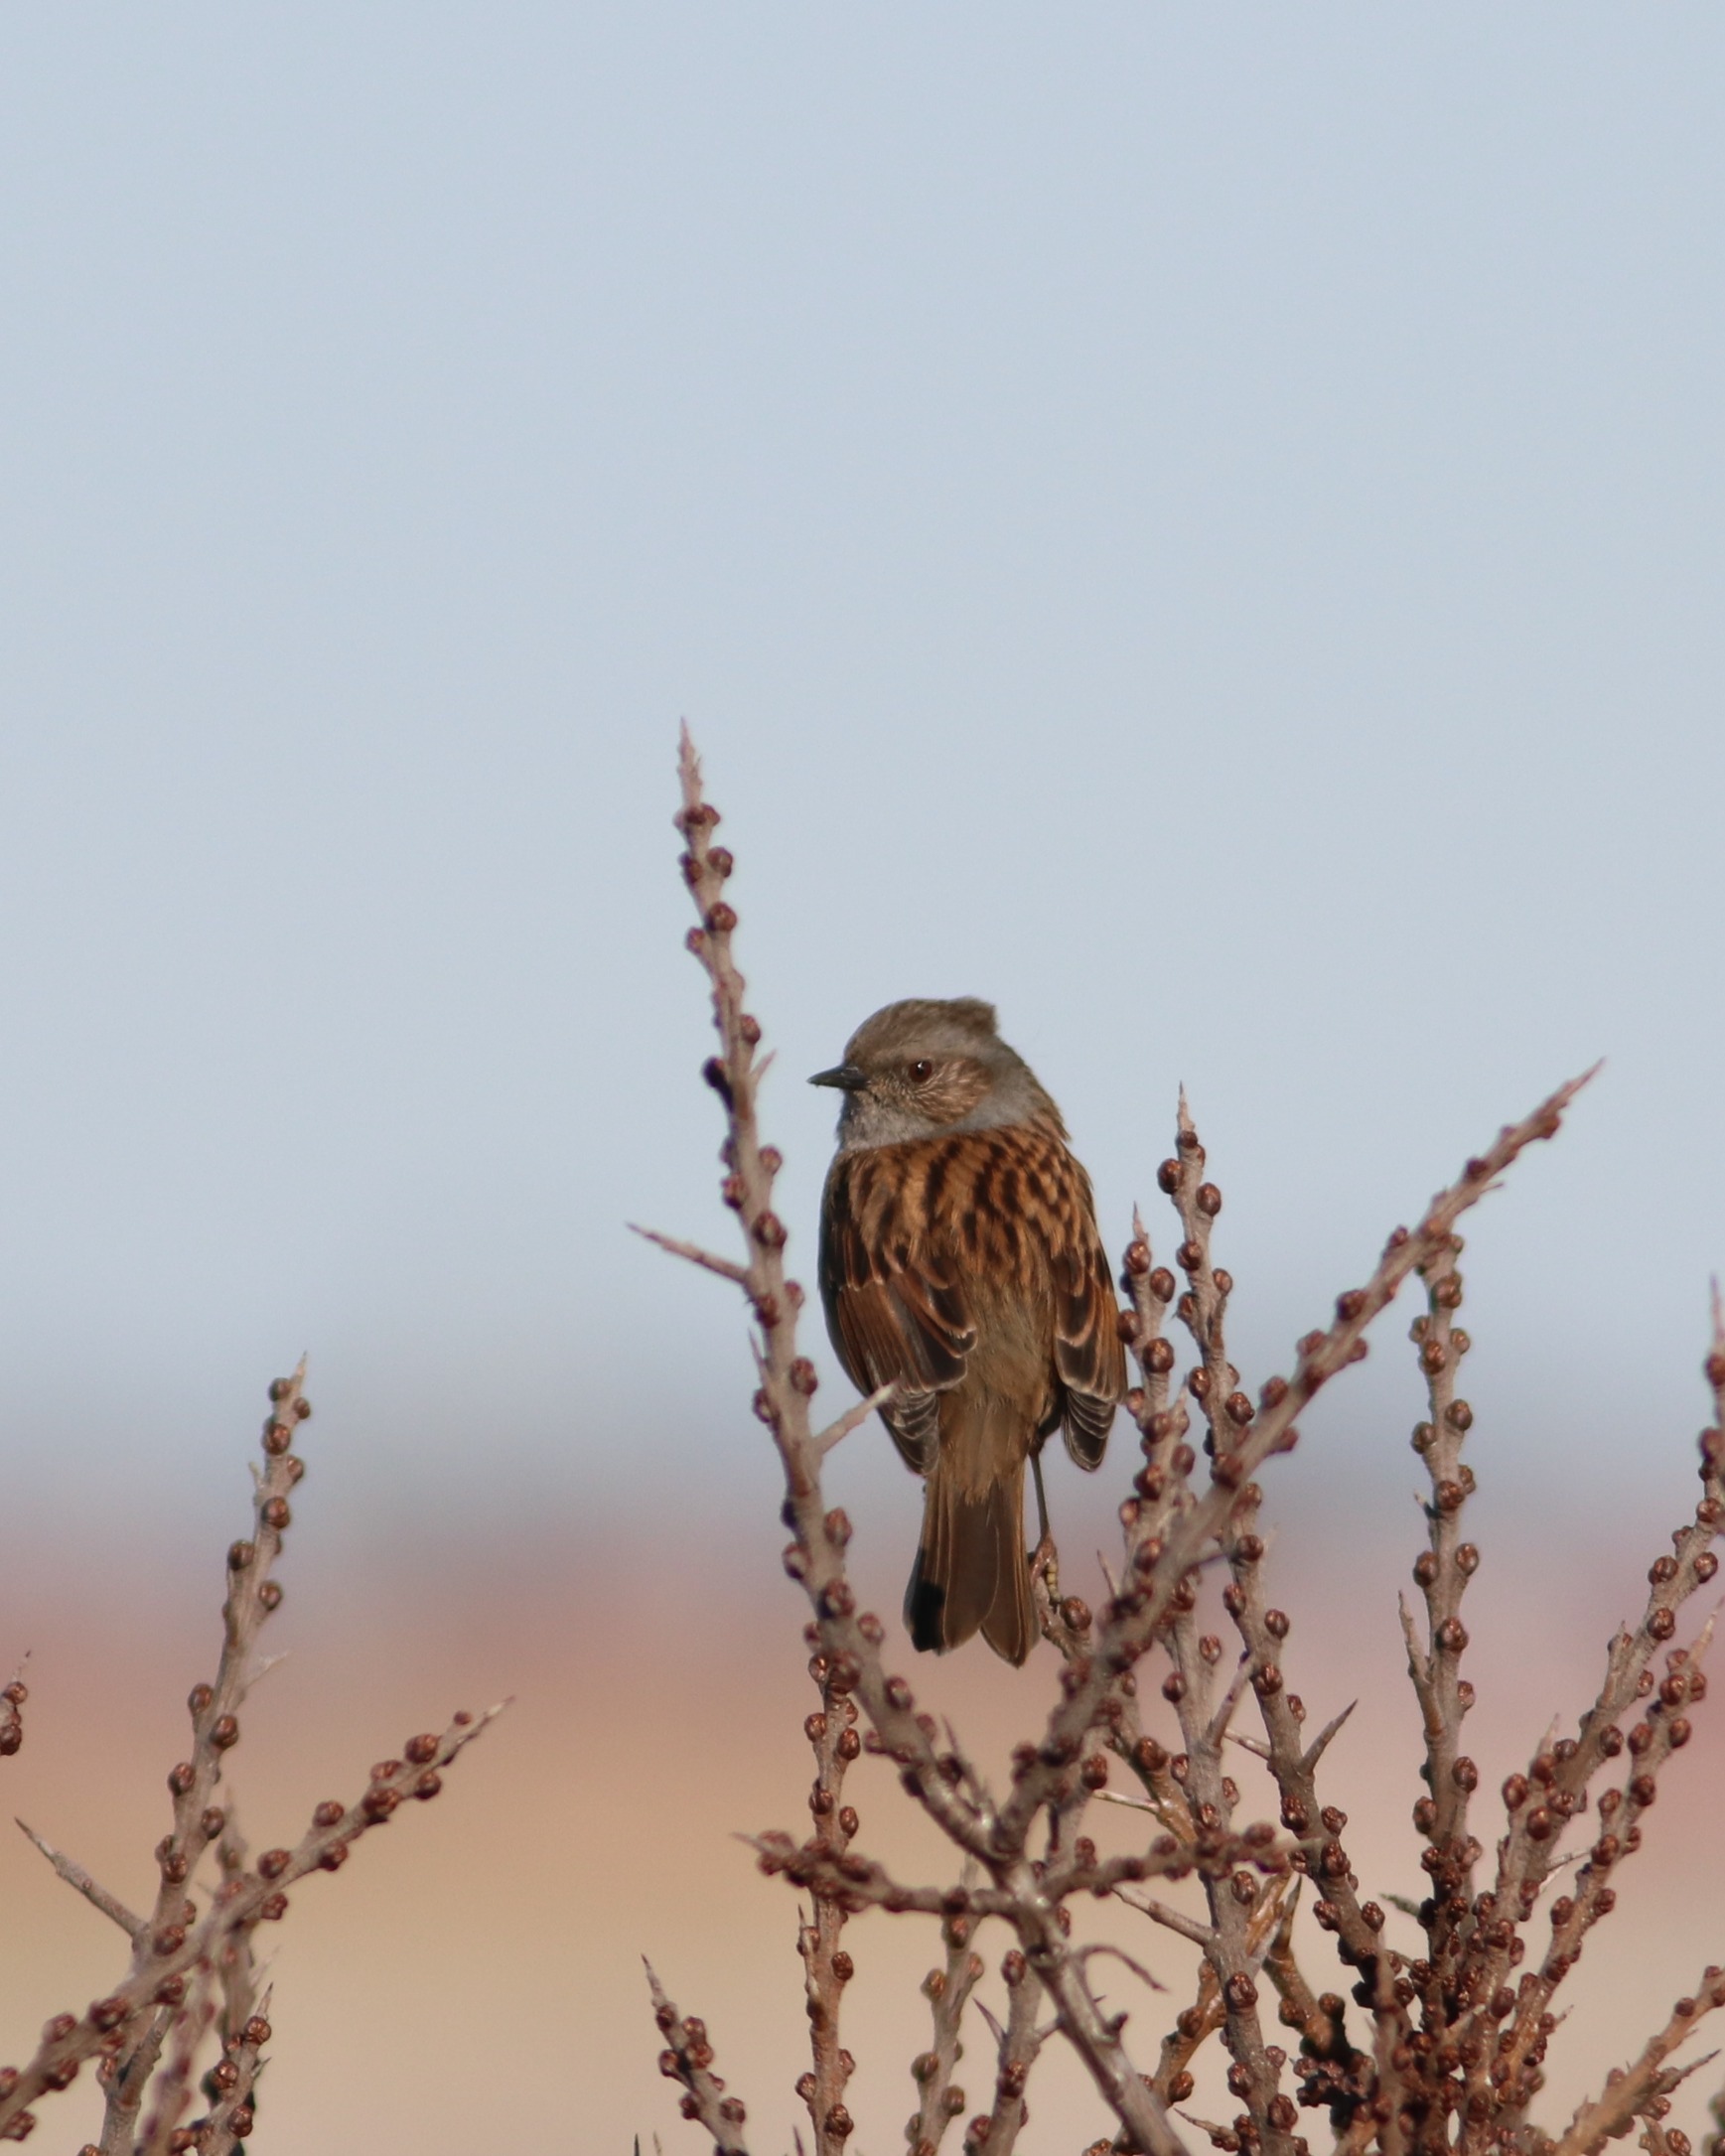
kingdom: Animalia
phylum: Chordata
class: Aves
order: Passeriformes
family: Prunellidae
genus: Prunella
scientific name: Prunella modularis
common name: Jernspurv
